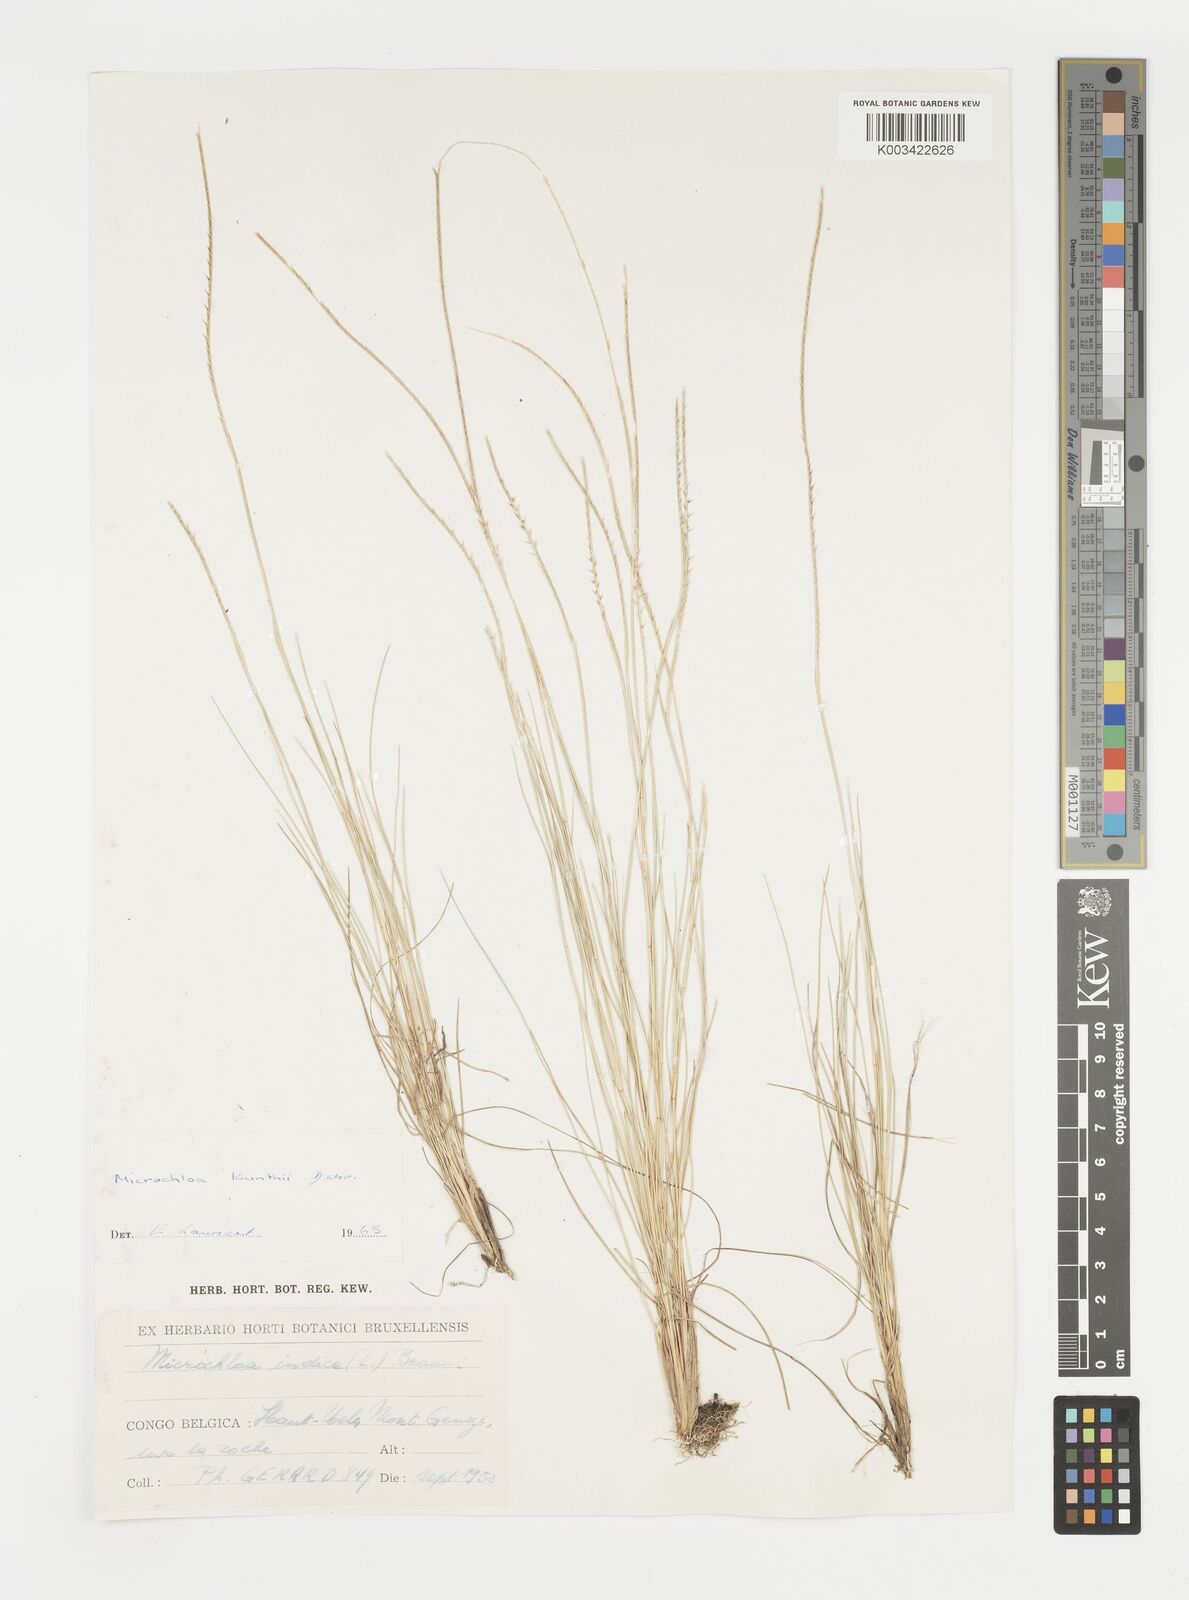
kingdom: Plantae
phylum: Tracheophyta
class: Liliopsida
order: Poales
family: Poaceae
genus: Microchloa
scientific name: Microchloa kunthii
